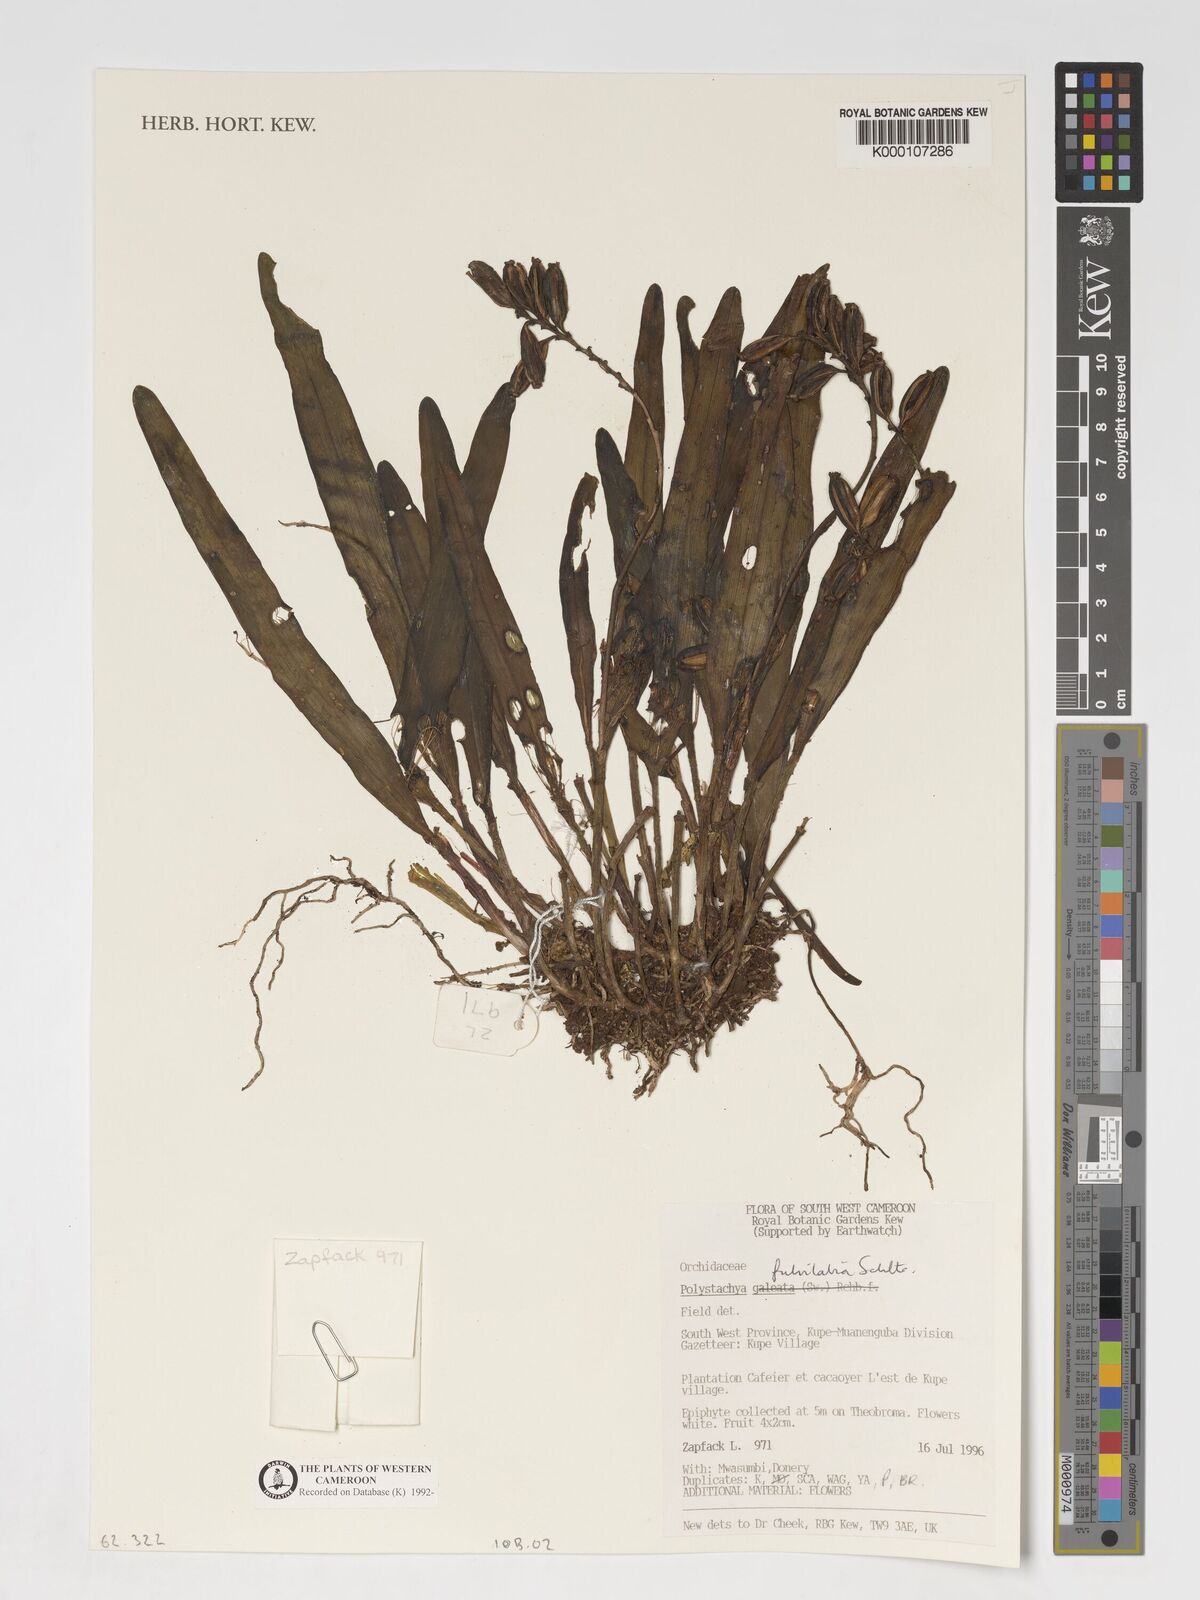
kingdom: Plantae
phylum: Tracheophyta
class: Liliopsida
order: Asparagales
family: Orchidaceae
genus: Polystachya
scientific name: Polystachya fulvilabia
